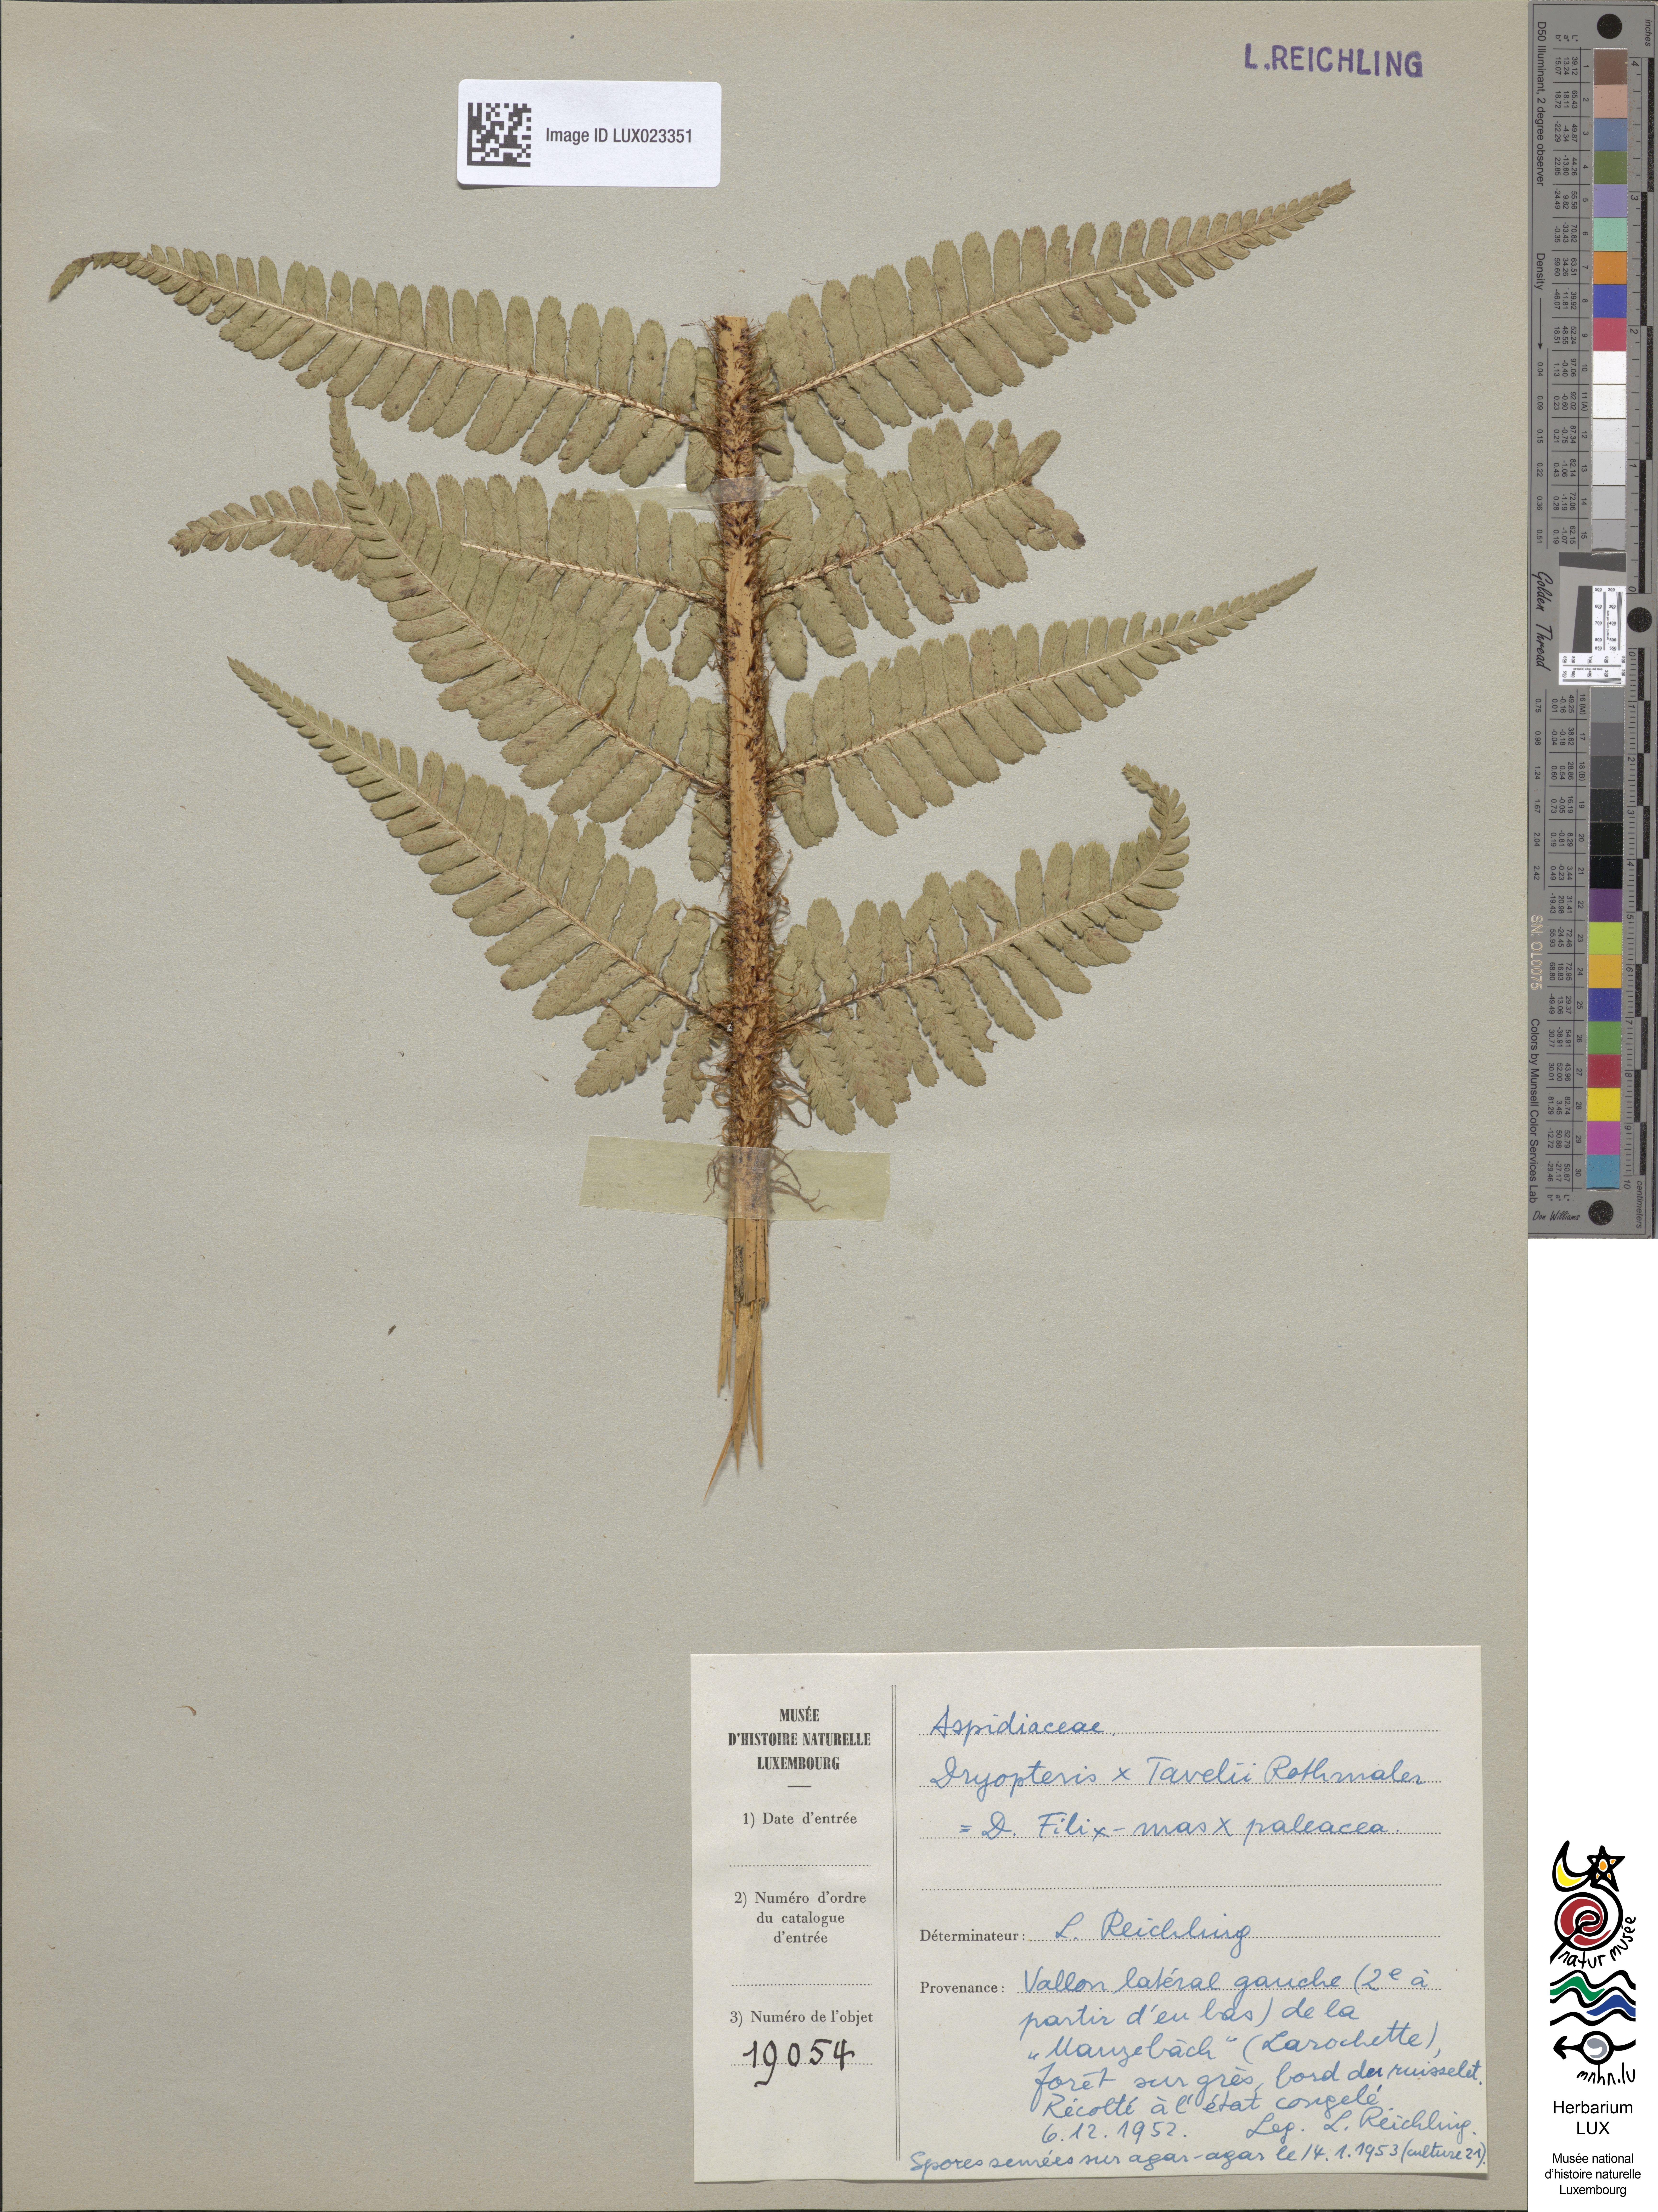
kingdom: Plantae
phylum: Tracheophyta
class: Polypodiopsida
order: Polypodiales
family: Dryopteridaceae
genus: Dryopteris
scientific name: Dryopteris borreri
